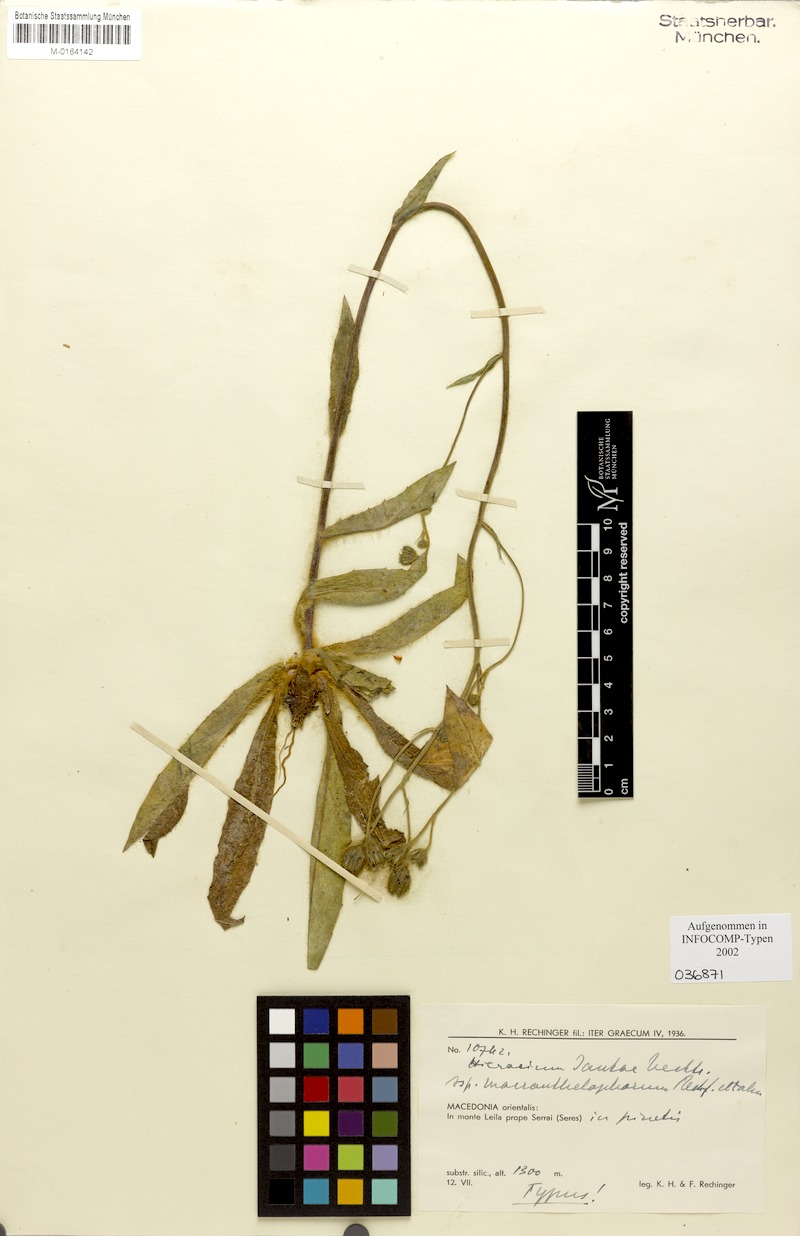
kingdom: Plantae
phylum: Tracheophyta
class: Magnoliopsida
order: Asterales
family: Asteraceae
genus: Hieracium
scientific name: Hieracium jankae
